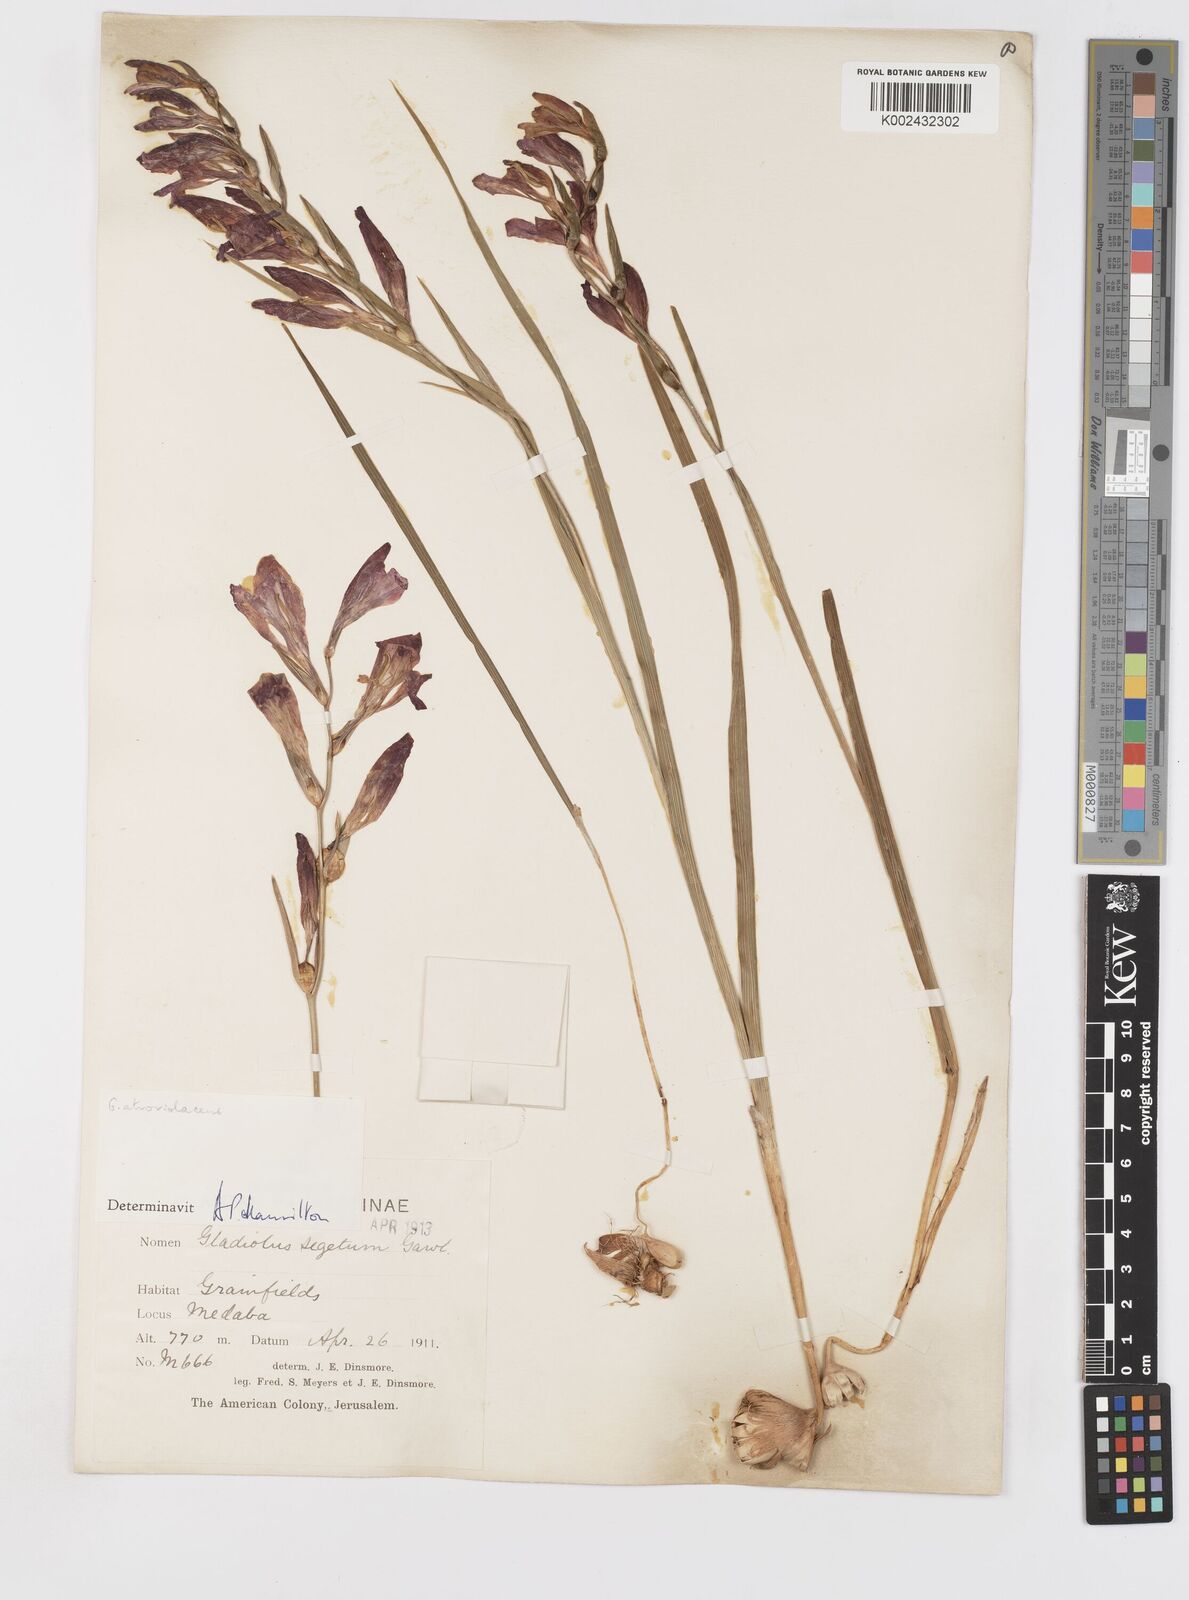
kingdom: Plantae
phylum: Tracheophyta
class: Liliopsida
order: Asparagales
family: Iridaceae
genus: Gladiolus
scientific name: Gladiolus italicus
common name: Field gladiolus
